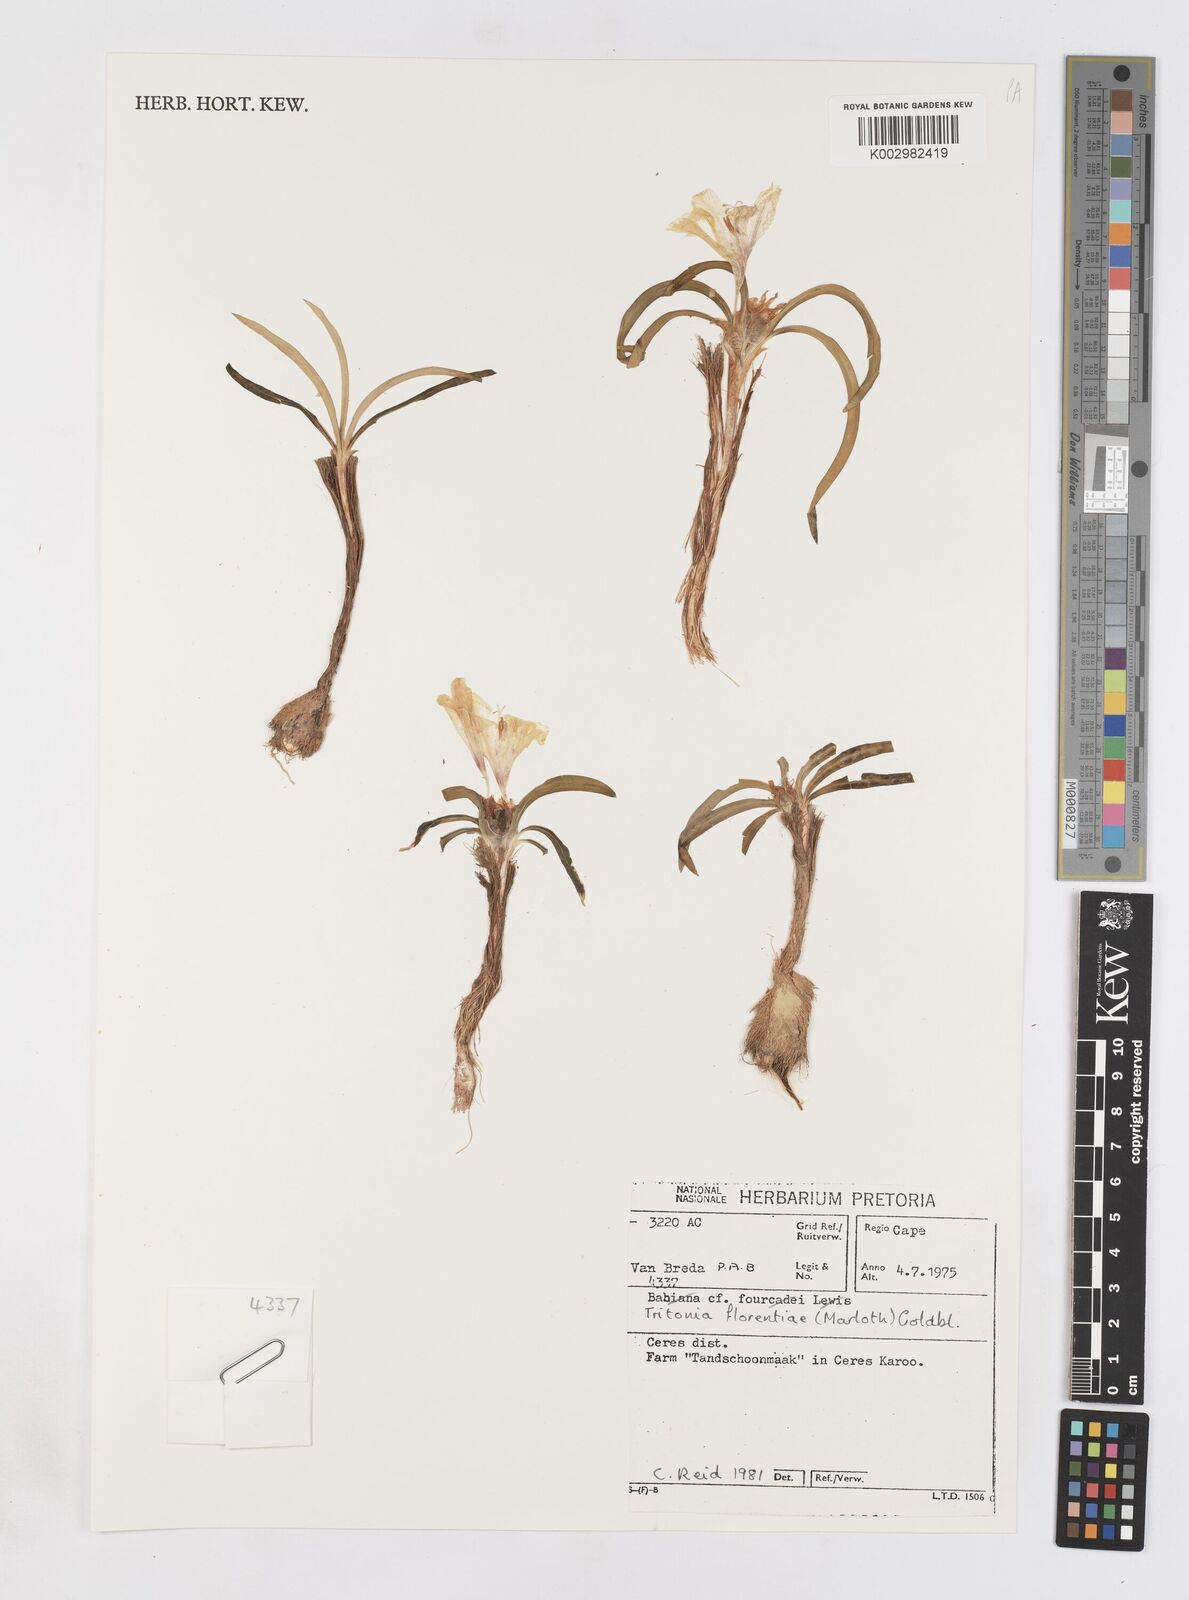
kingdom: Plantae
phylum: Tracheophyta
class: Liliopsida
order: Asparagales
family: Iridaceae
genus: Tritonia
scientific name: Tritonia florentiae
